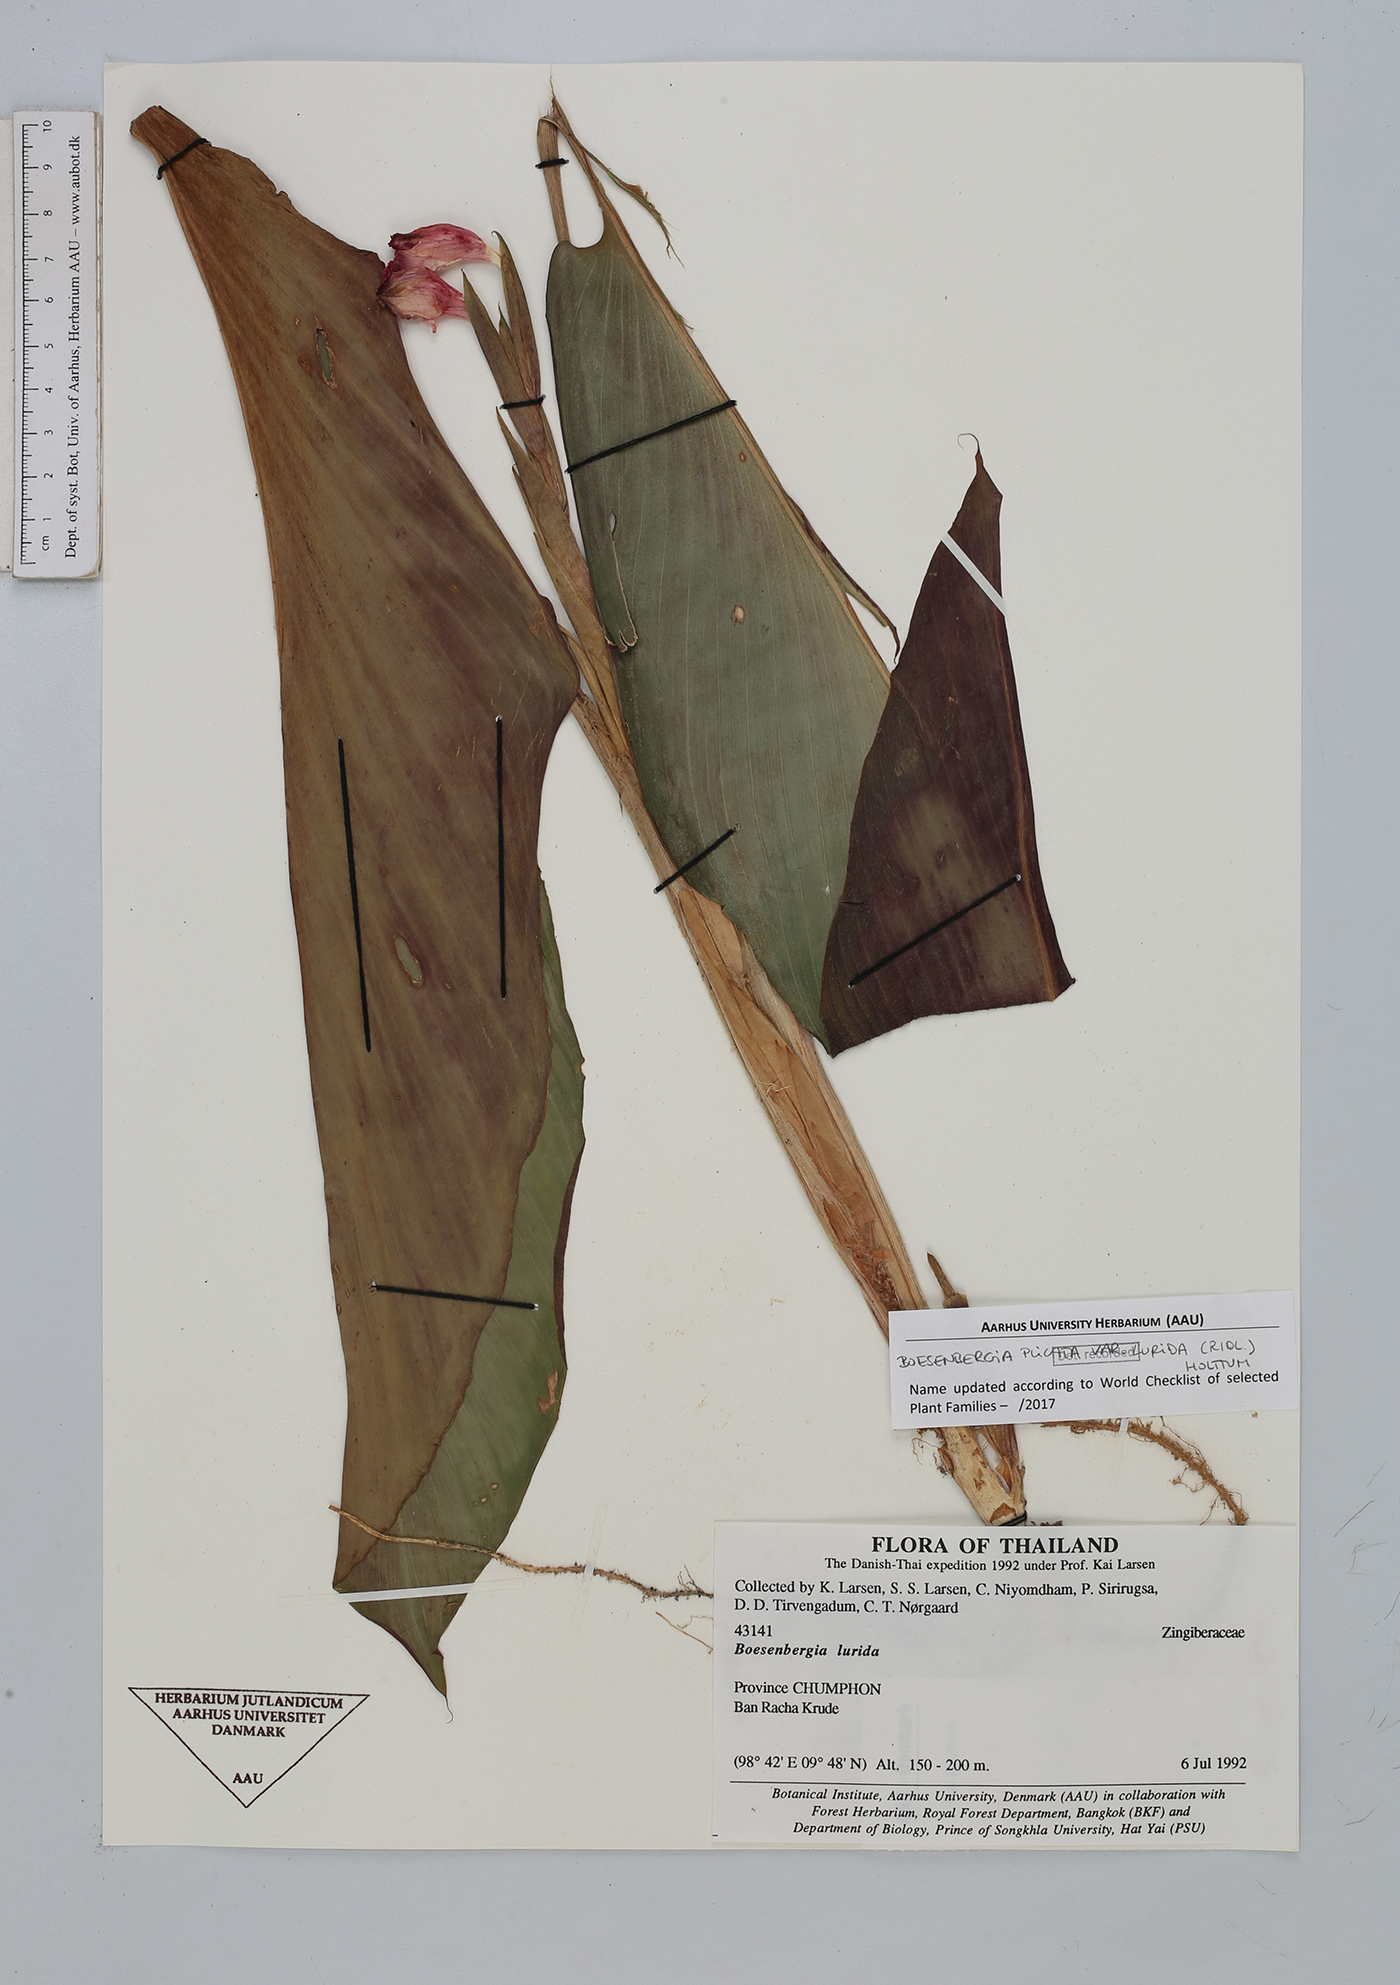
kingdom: Plantae
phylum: Tracheophyta
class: Liliopsida
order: Zingiberales
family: Zingiberaceae
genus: Boesenbergia
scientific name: Boesenbergia plicata
